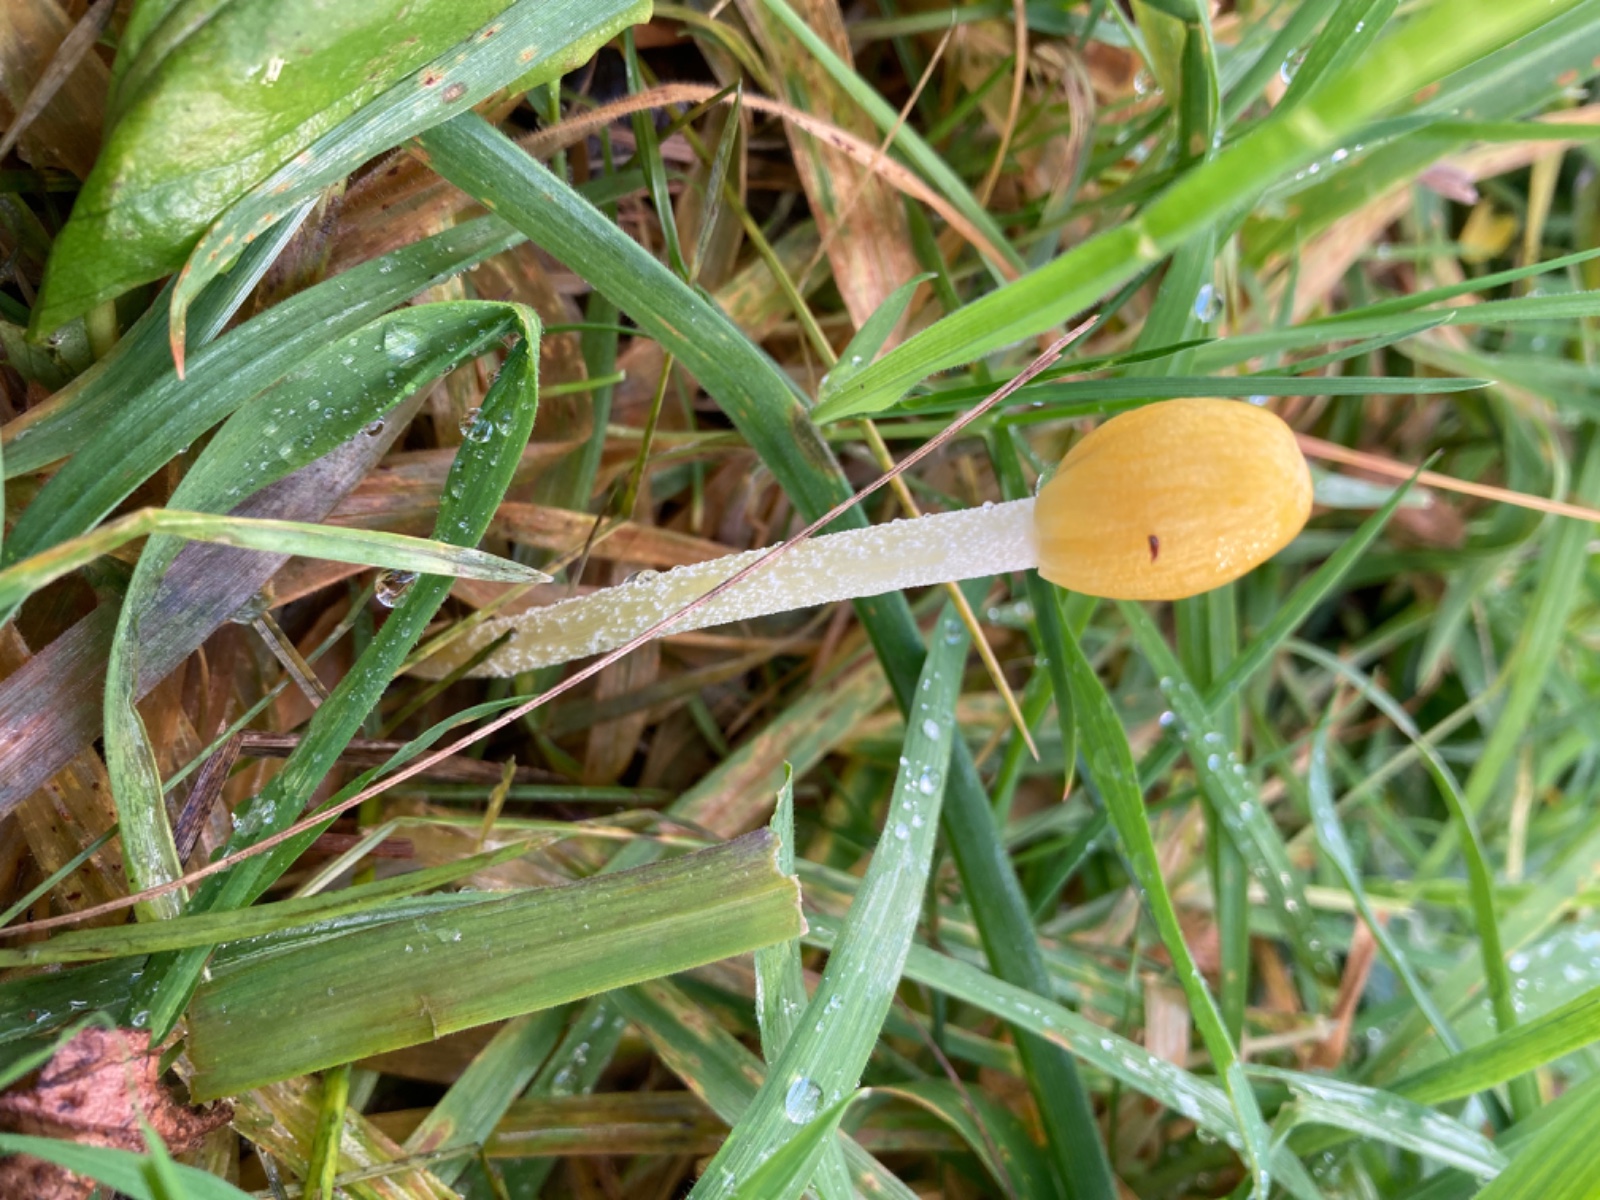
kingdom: Fungi
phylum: Basidiomycota
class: Agaricomycetes
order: Agaricales
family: Bolbitiaceae
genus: Bolbitius
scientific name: Bolbitius titubans
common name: almindelig gulhat
